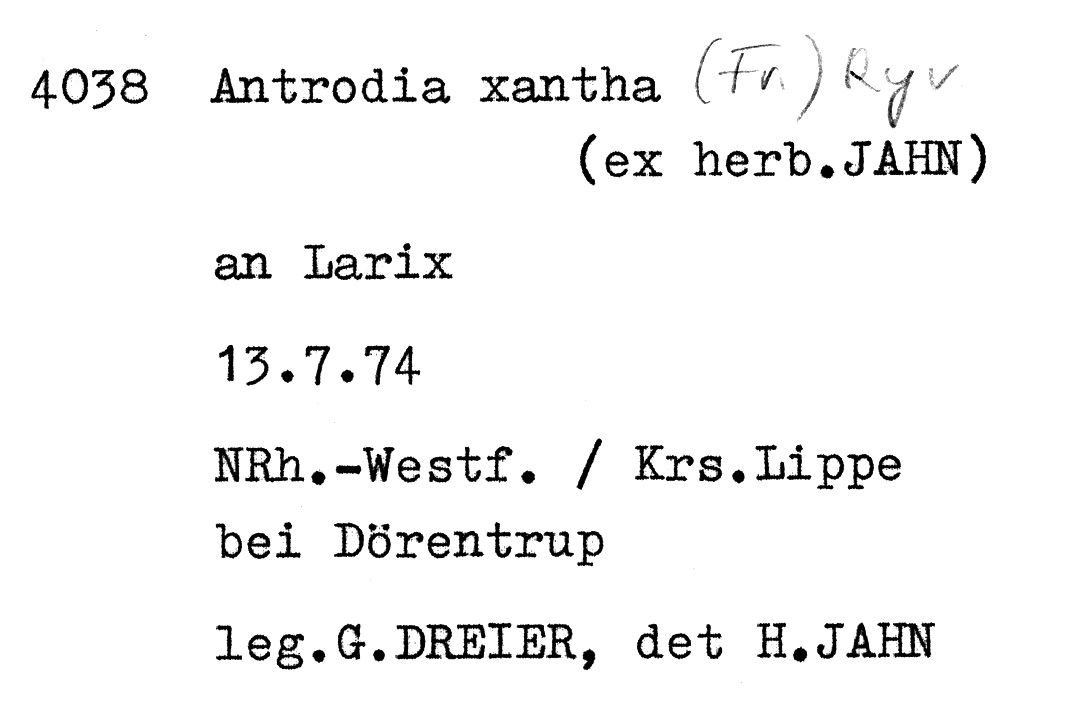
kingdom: Fungi
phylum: Basidiomycota
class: Agaricomycetes
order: Polyporales
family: Fomitopsidaceae
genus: Daedalea
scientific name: Daedalea xantha
